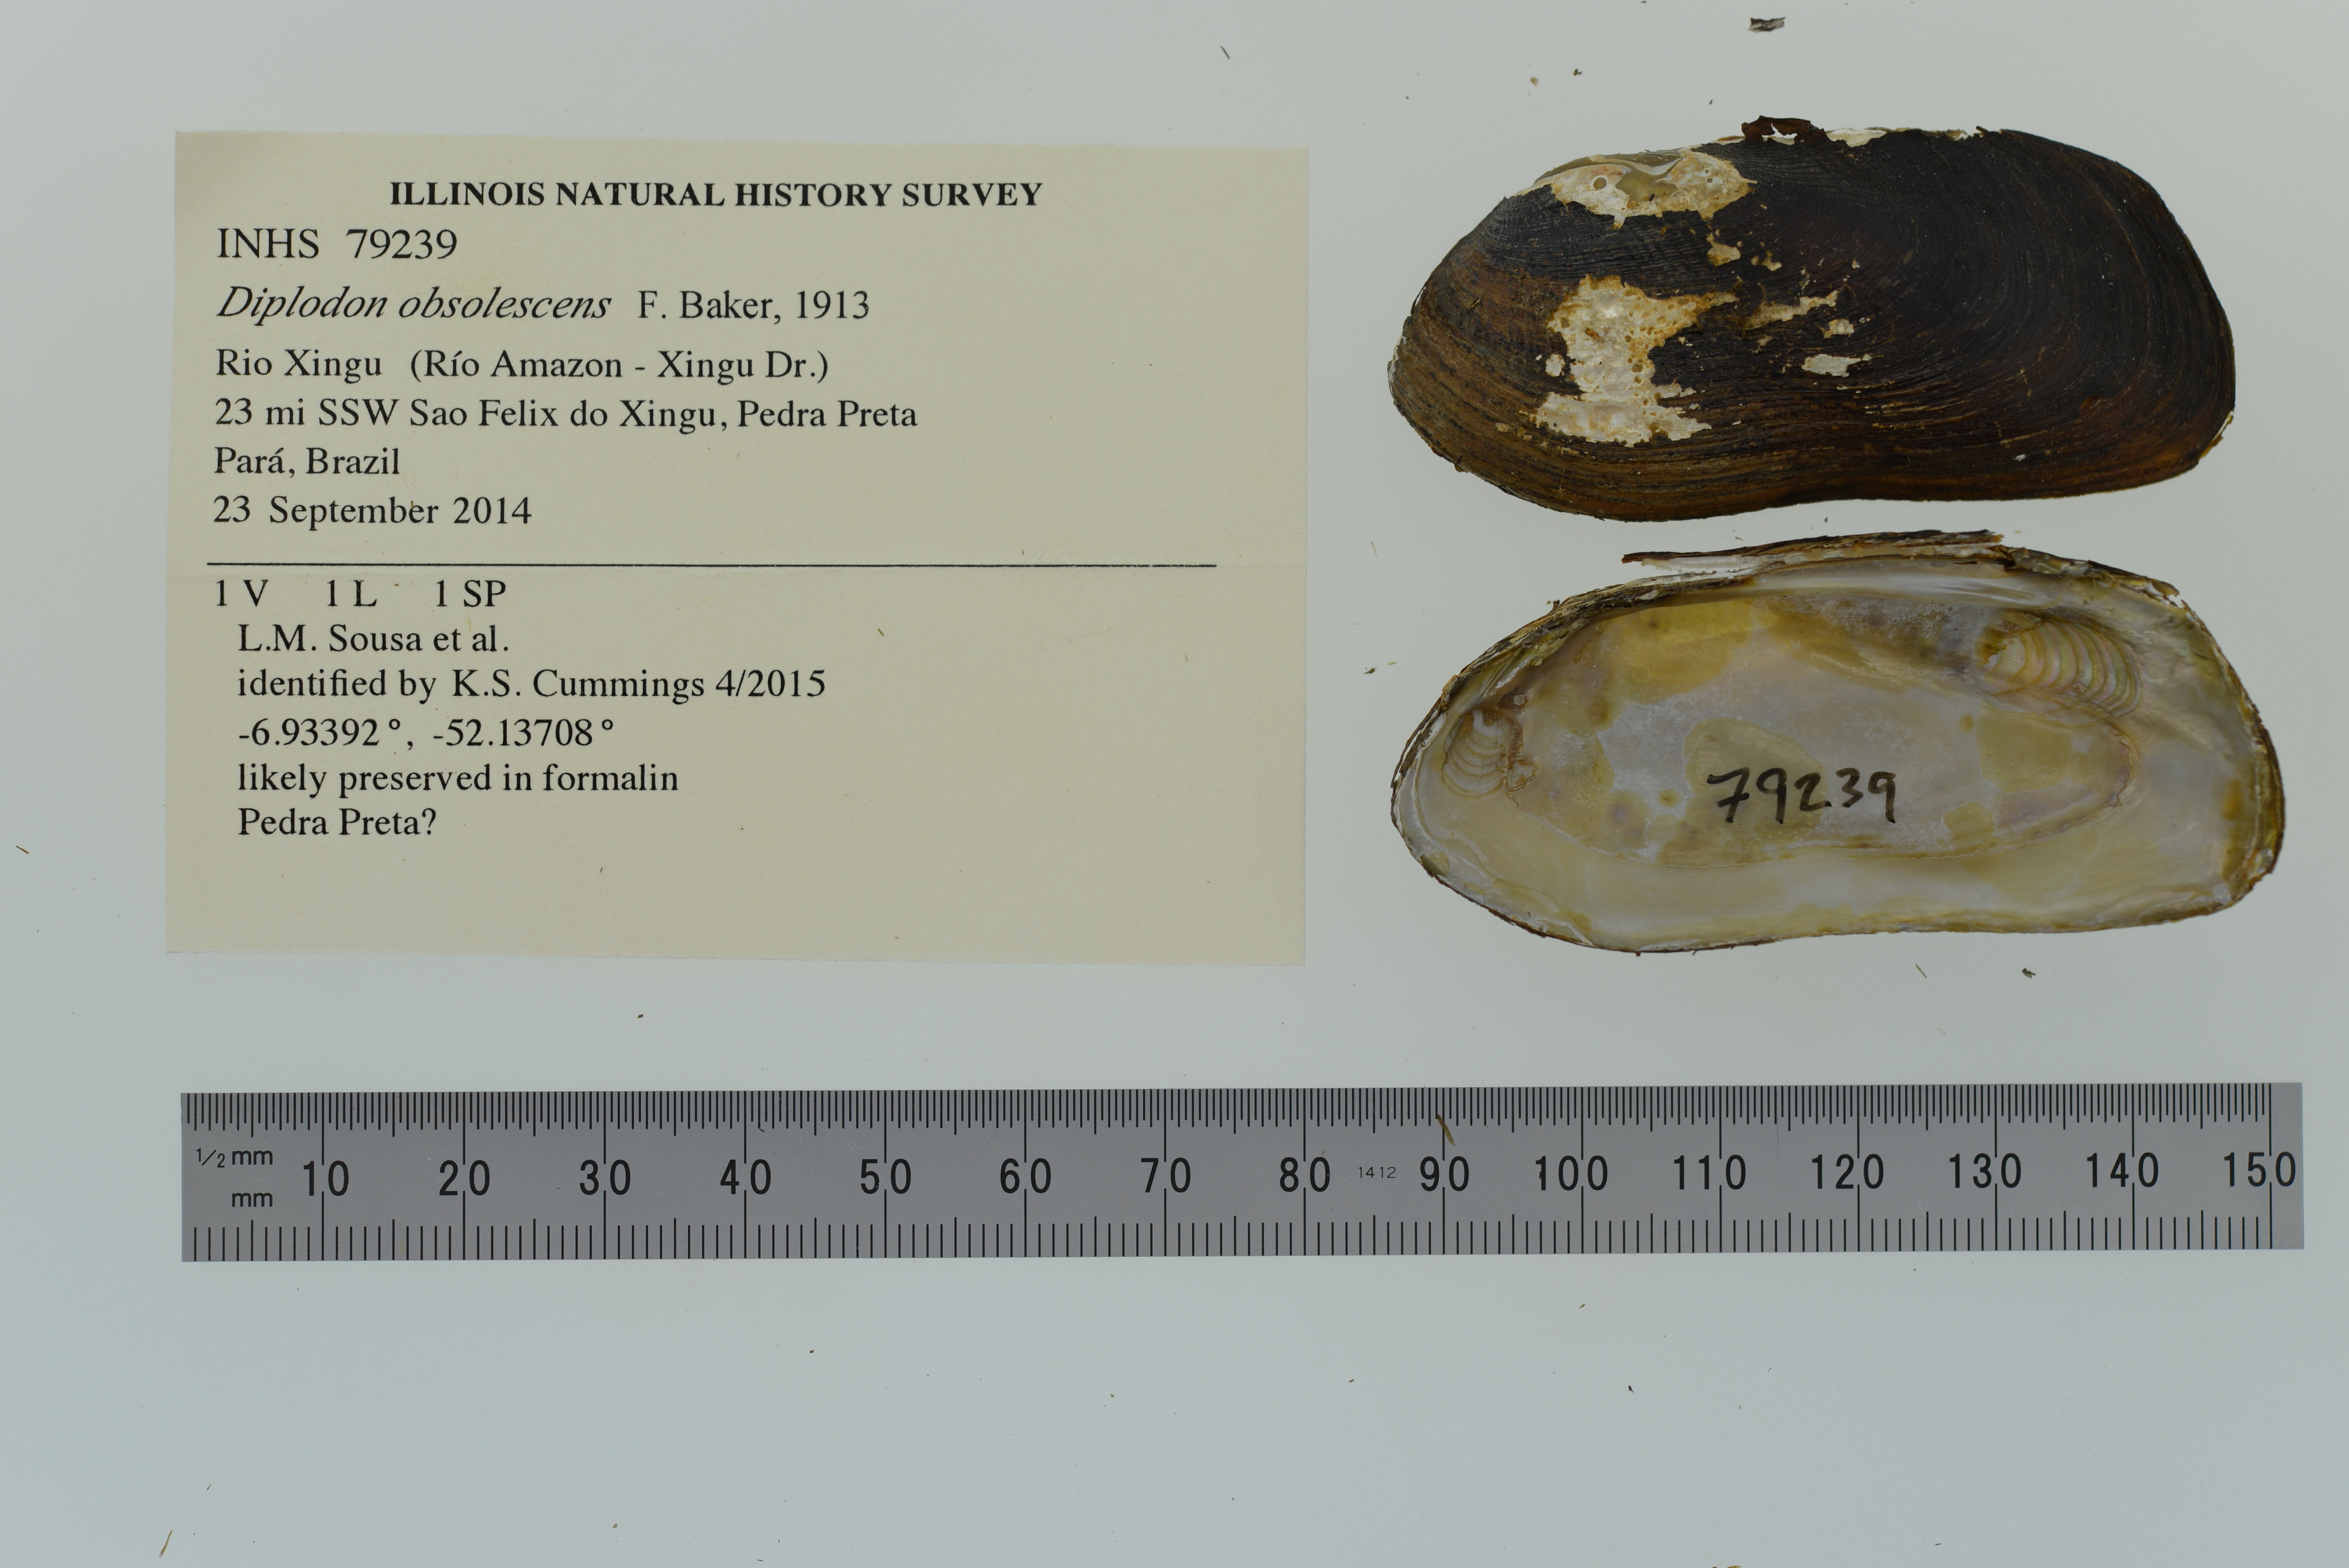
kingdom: Animalia
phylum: Mollusca
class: Bivalvia
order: Unionida
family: Hyriidae
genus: Diplodon
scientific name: Diplodon obsolescens
